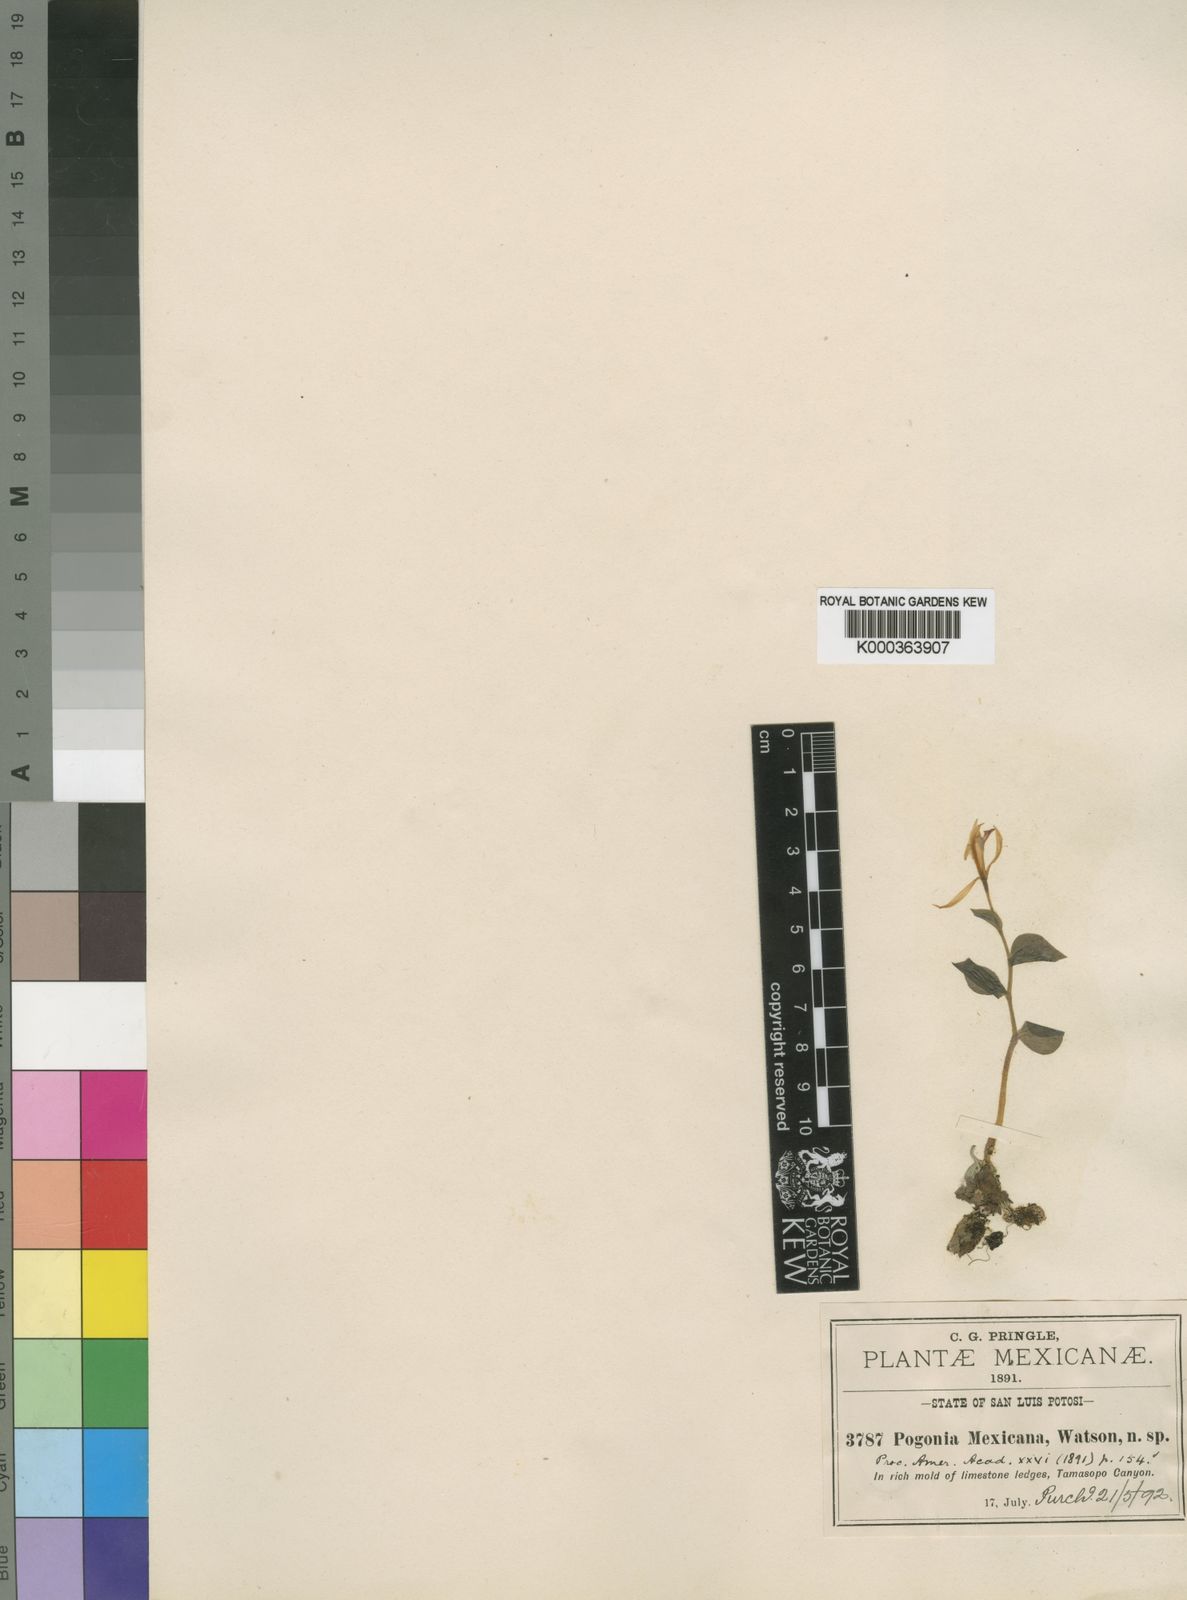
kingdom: Plantae
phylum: Tracheophyta
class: Liliopsida
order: Asparagales
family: Orchidaceae
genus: Triphora
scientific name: Triphora trianthophoros
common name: Three birds orchid
